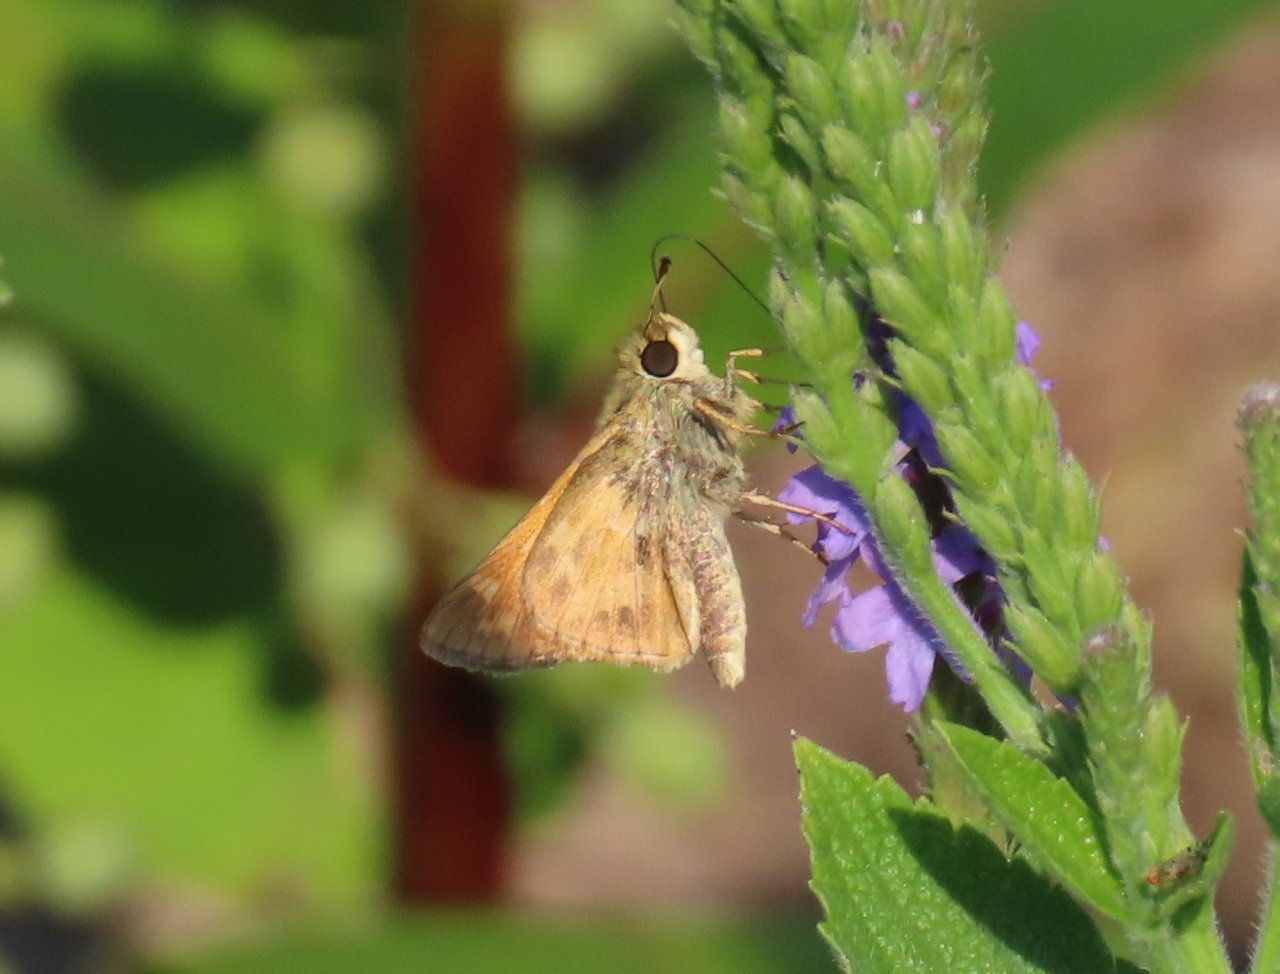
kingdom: Animalia
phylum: Arthropoda
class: Insecta
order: Lepidoptera
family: Hesperiidae
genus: Atalopedes
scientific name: Atalopedes campestris
